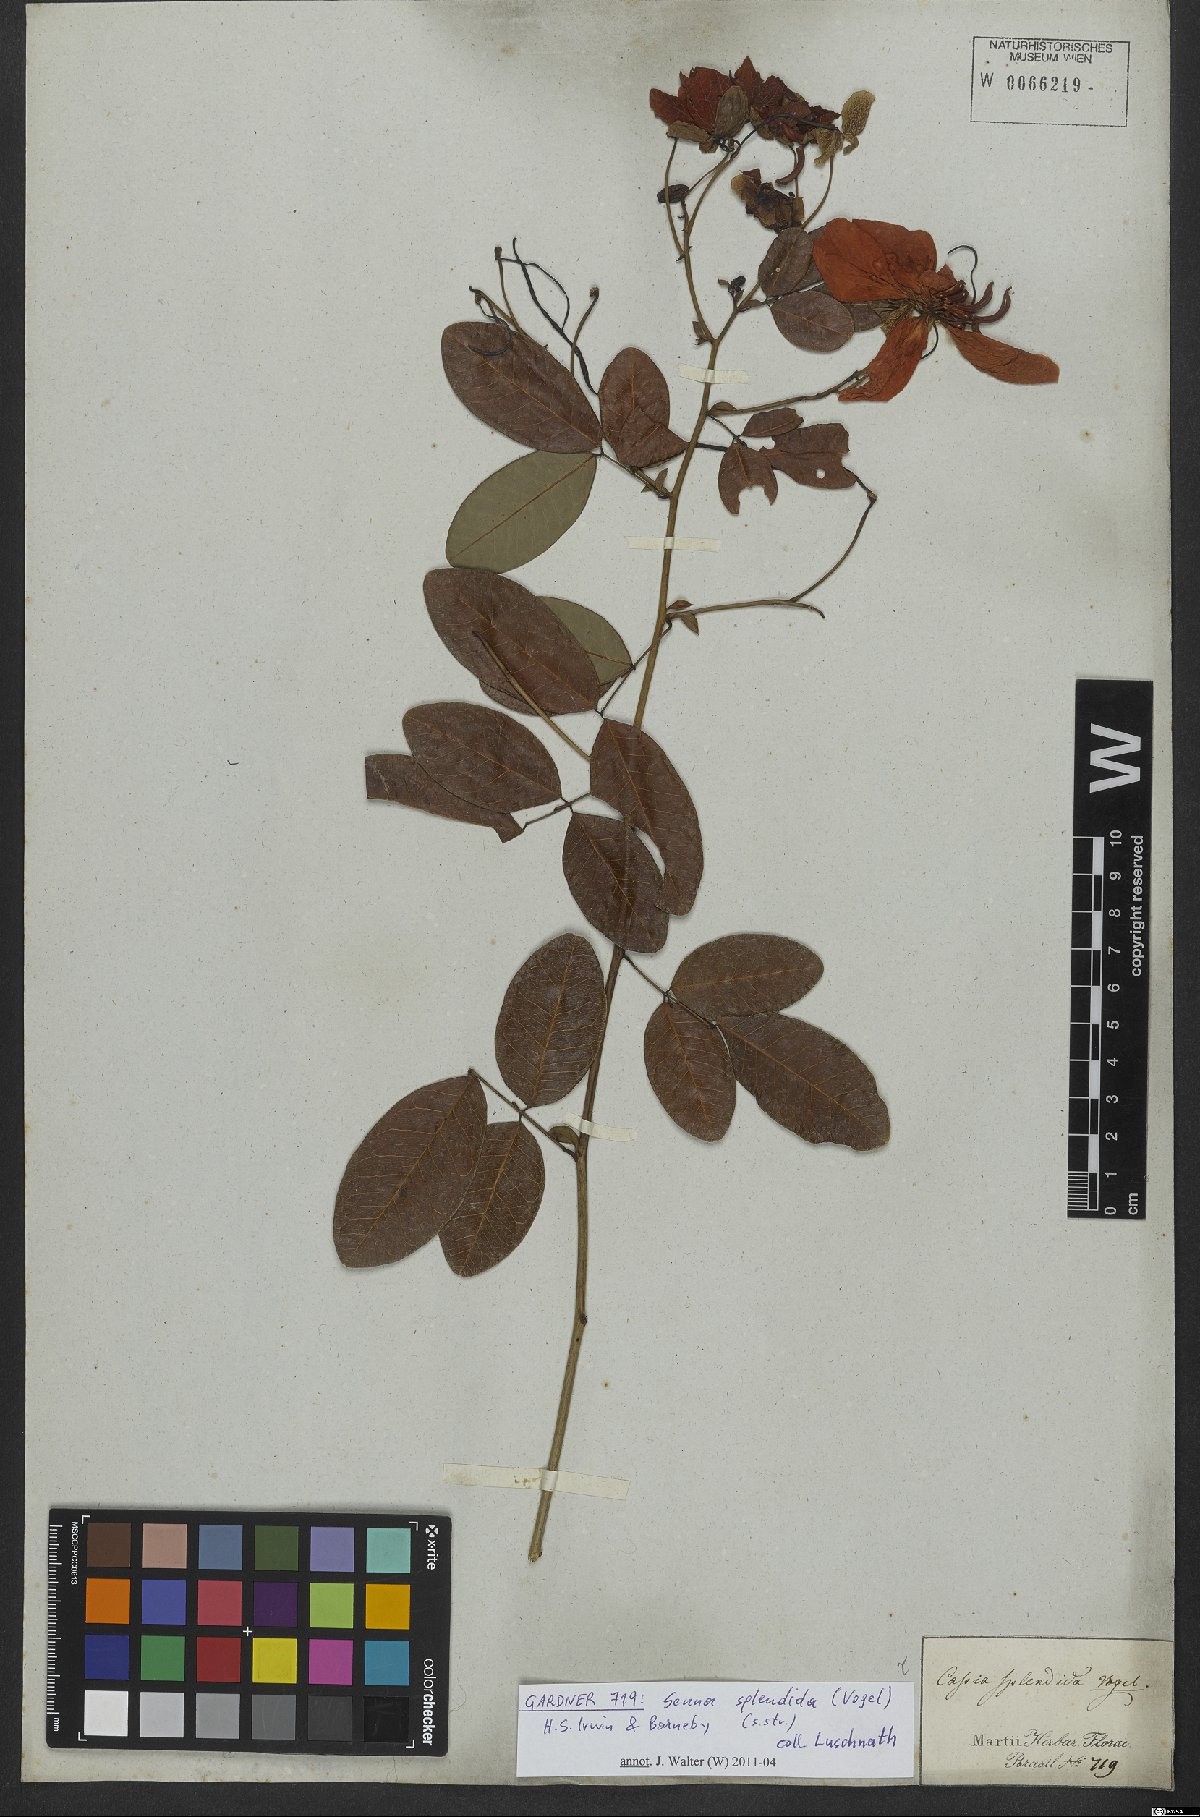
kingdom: Plantae
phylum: Tracheophyta
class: Magnoliopsida
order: Fabales
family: Fabaceae
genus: Senna
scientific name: Senna splendida
